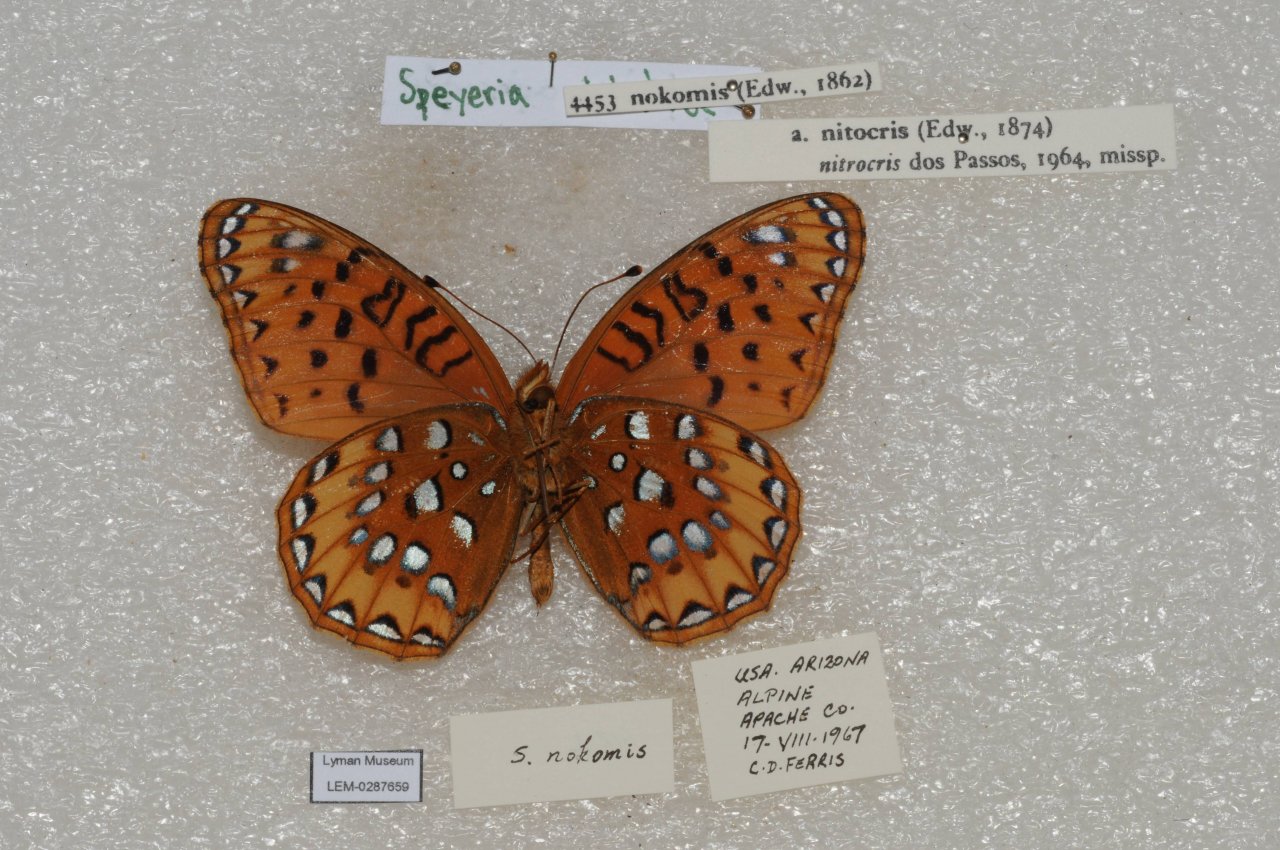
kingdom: Animalia
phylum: Arthropoda
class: Insecta
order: Lepidoptera
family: Nymphalidae
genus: Speyeria
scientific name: Speyeria nokomis
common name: Nokomis Fritillary
